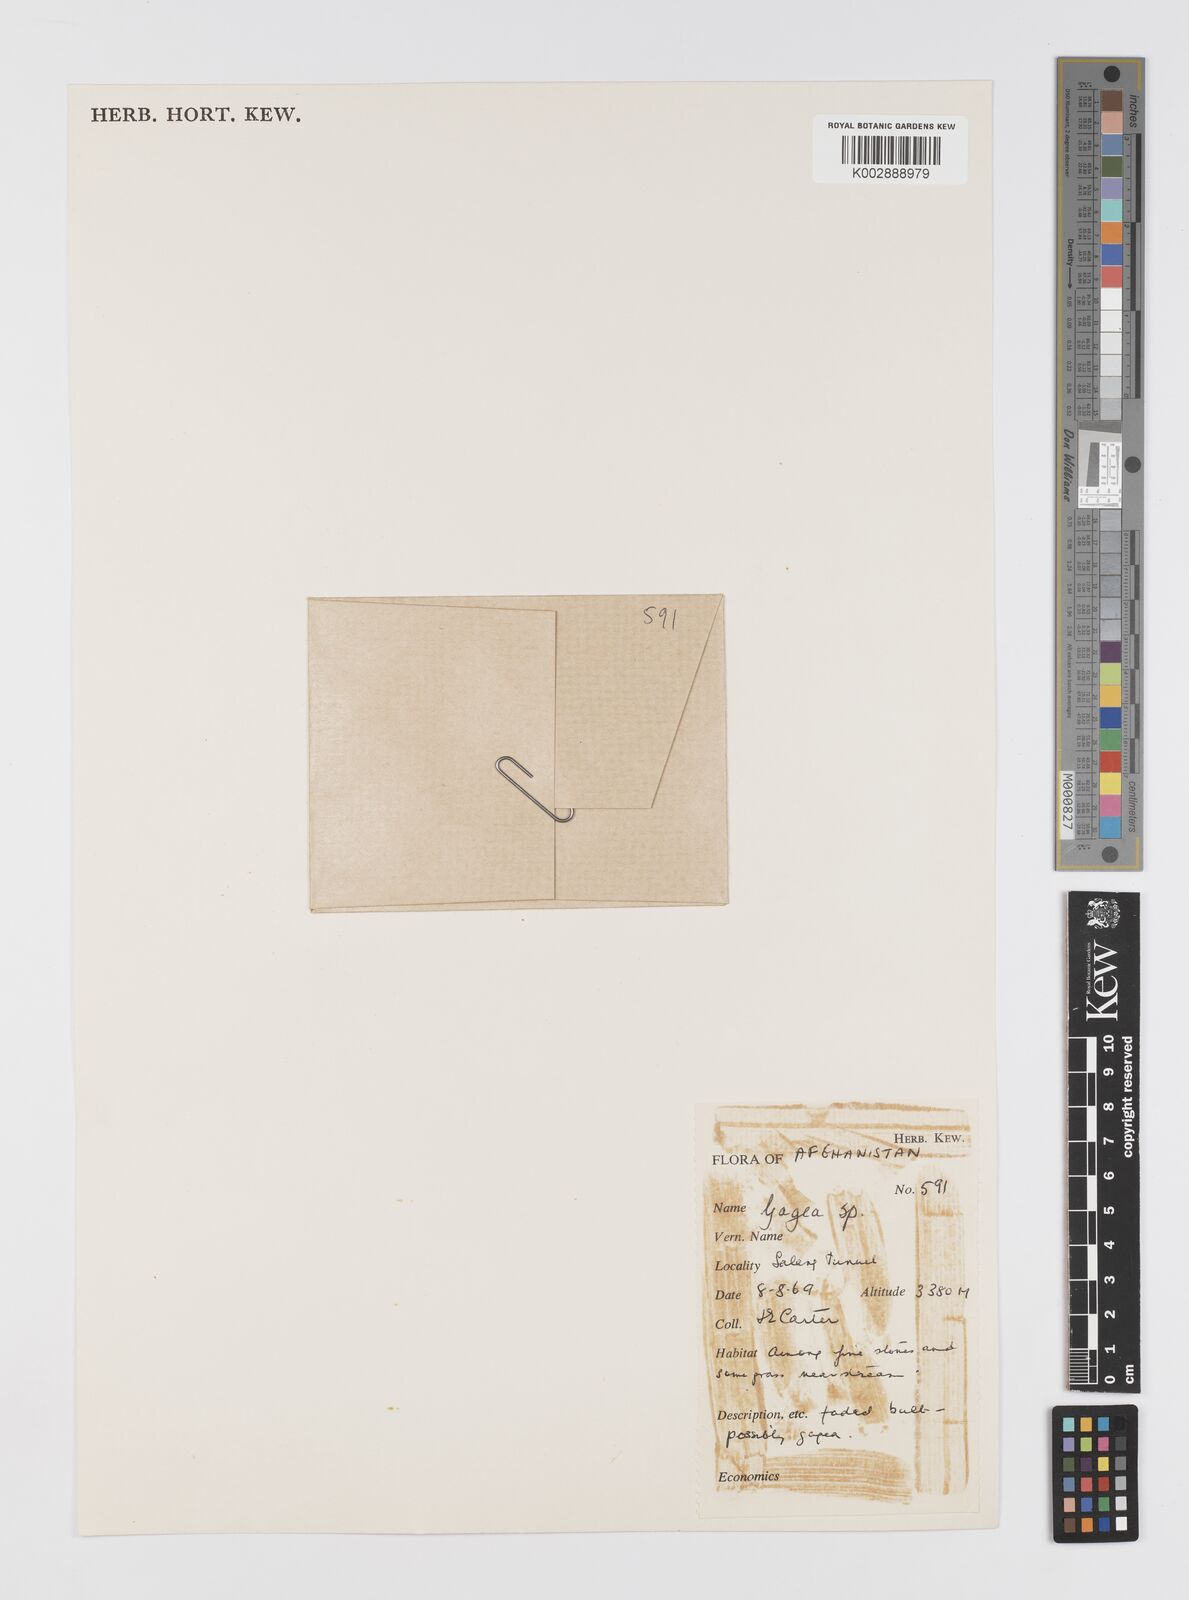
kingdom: Plantae
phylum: Tracheophyta
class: Liliopsida
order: Liliales
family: Liliaceae
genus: Gagea
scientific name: Gagea
